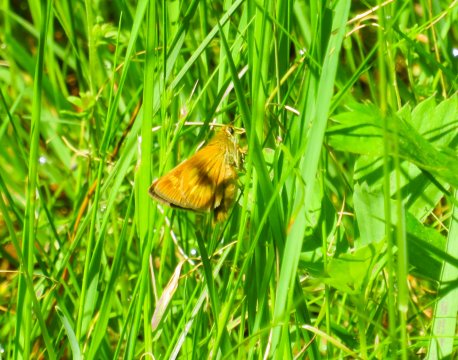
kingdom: Animalia
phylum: Arthropoda
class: Insecta
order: Lepidoptera
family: Hesperiidae
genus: Polites
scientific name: Polites
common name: Long Dash Skipper
